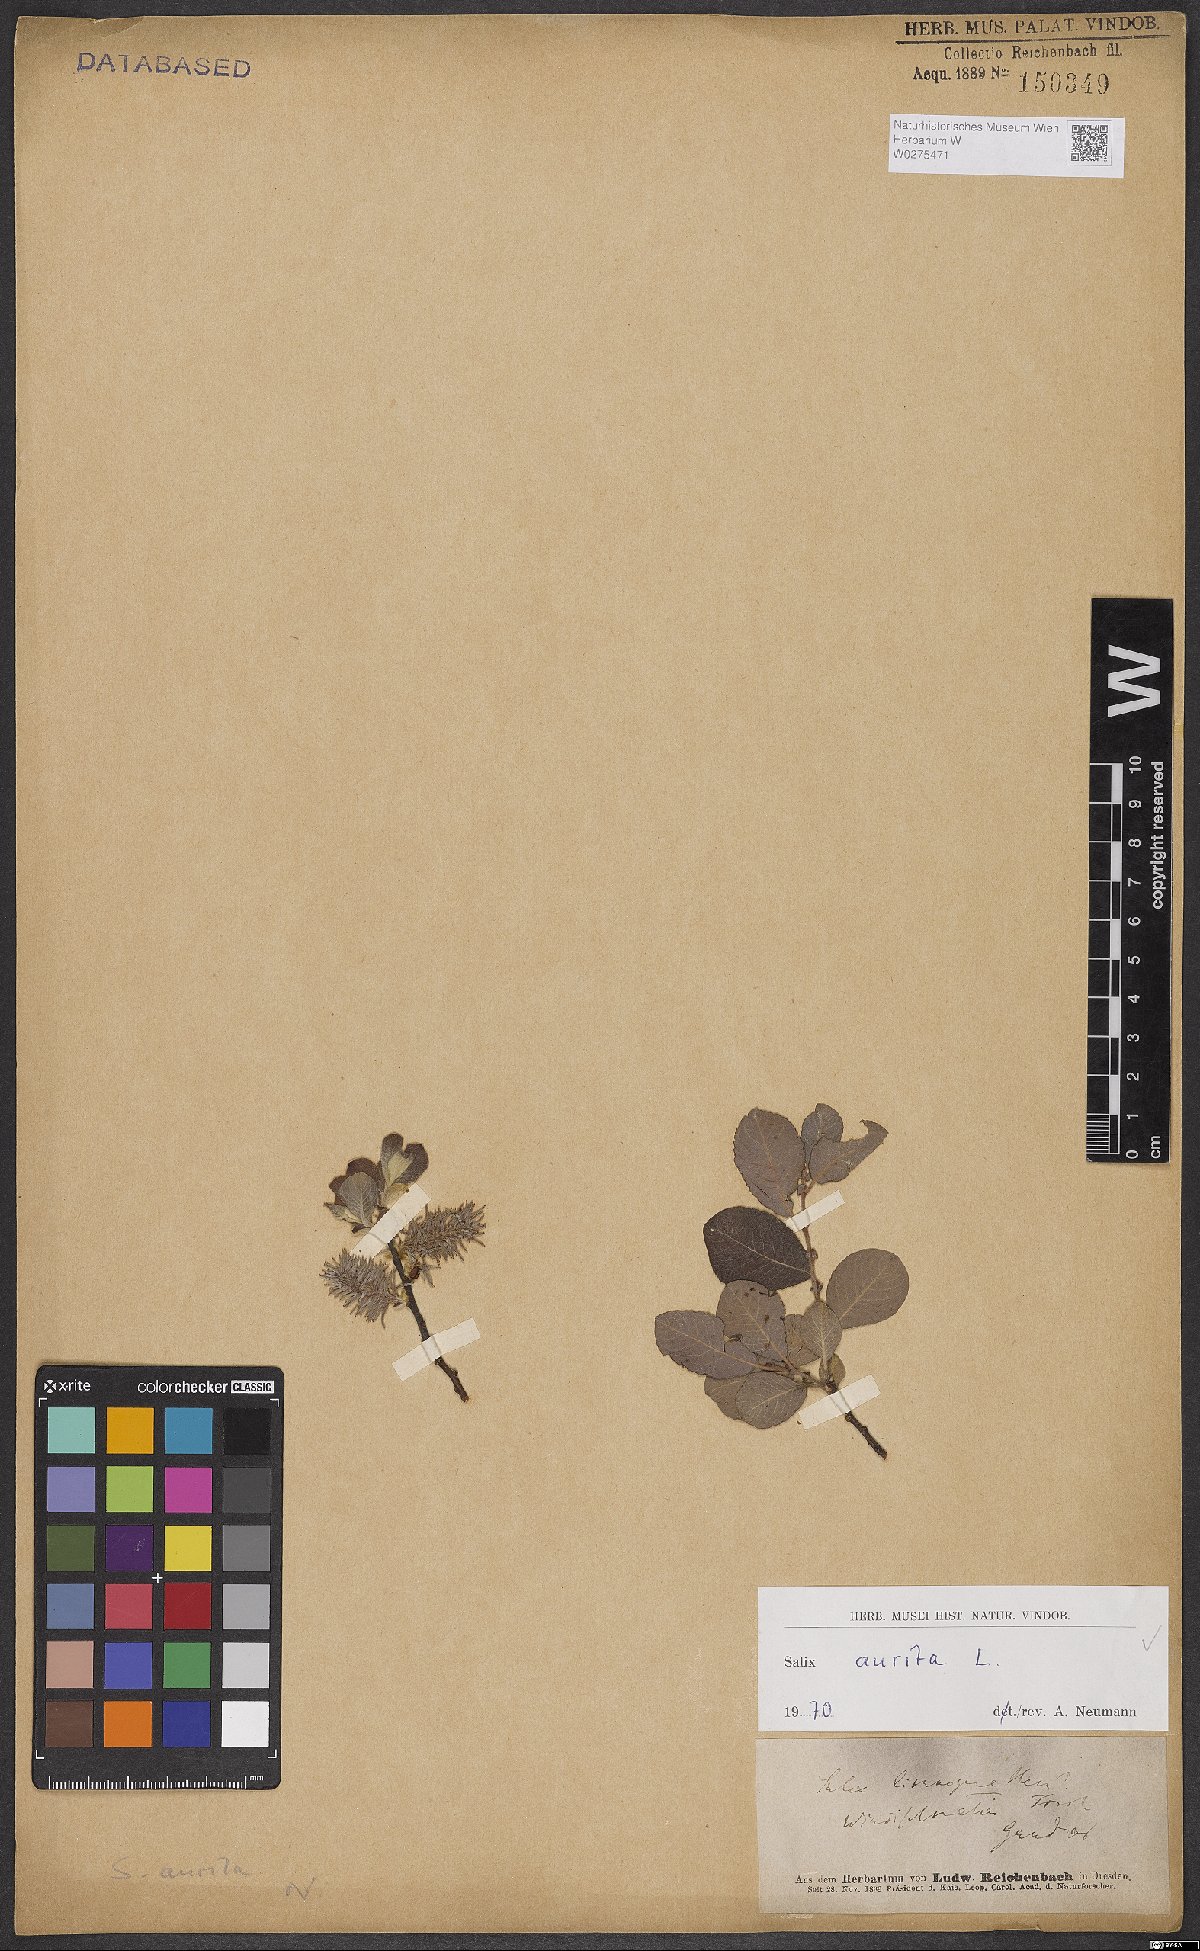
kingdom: Plantae
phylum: Tracheophyta
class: Magnoliopsida
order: Malpighiales
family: Salicaceae
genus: Salix
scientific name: Salix aurita
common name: Eared willow
